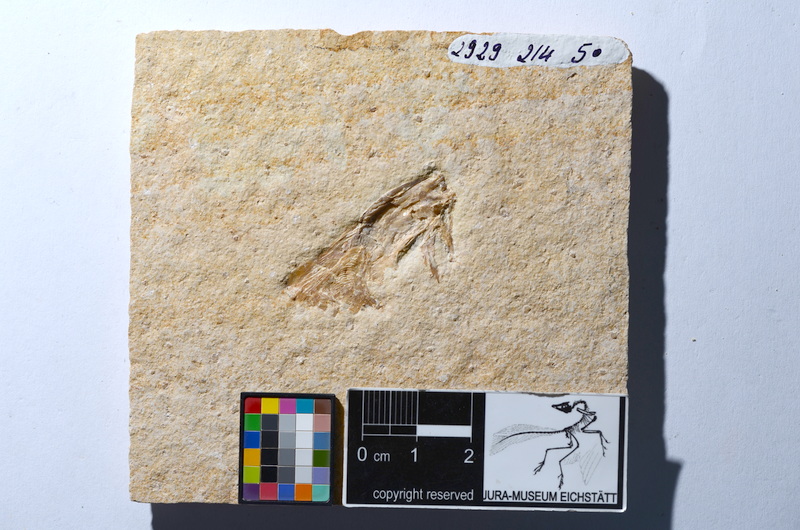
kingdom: Animalia
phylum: Chordata
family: Ascalaboidae
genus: Tharsis
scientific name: Tharsis dubius
